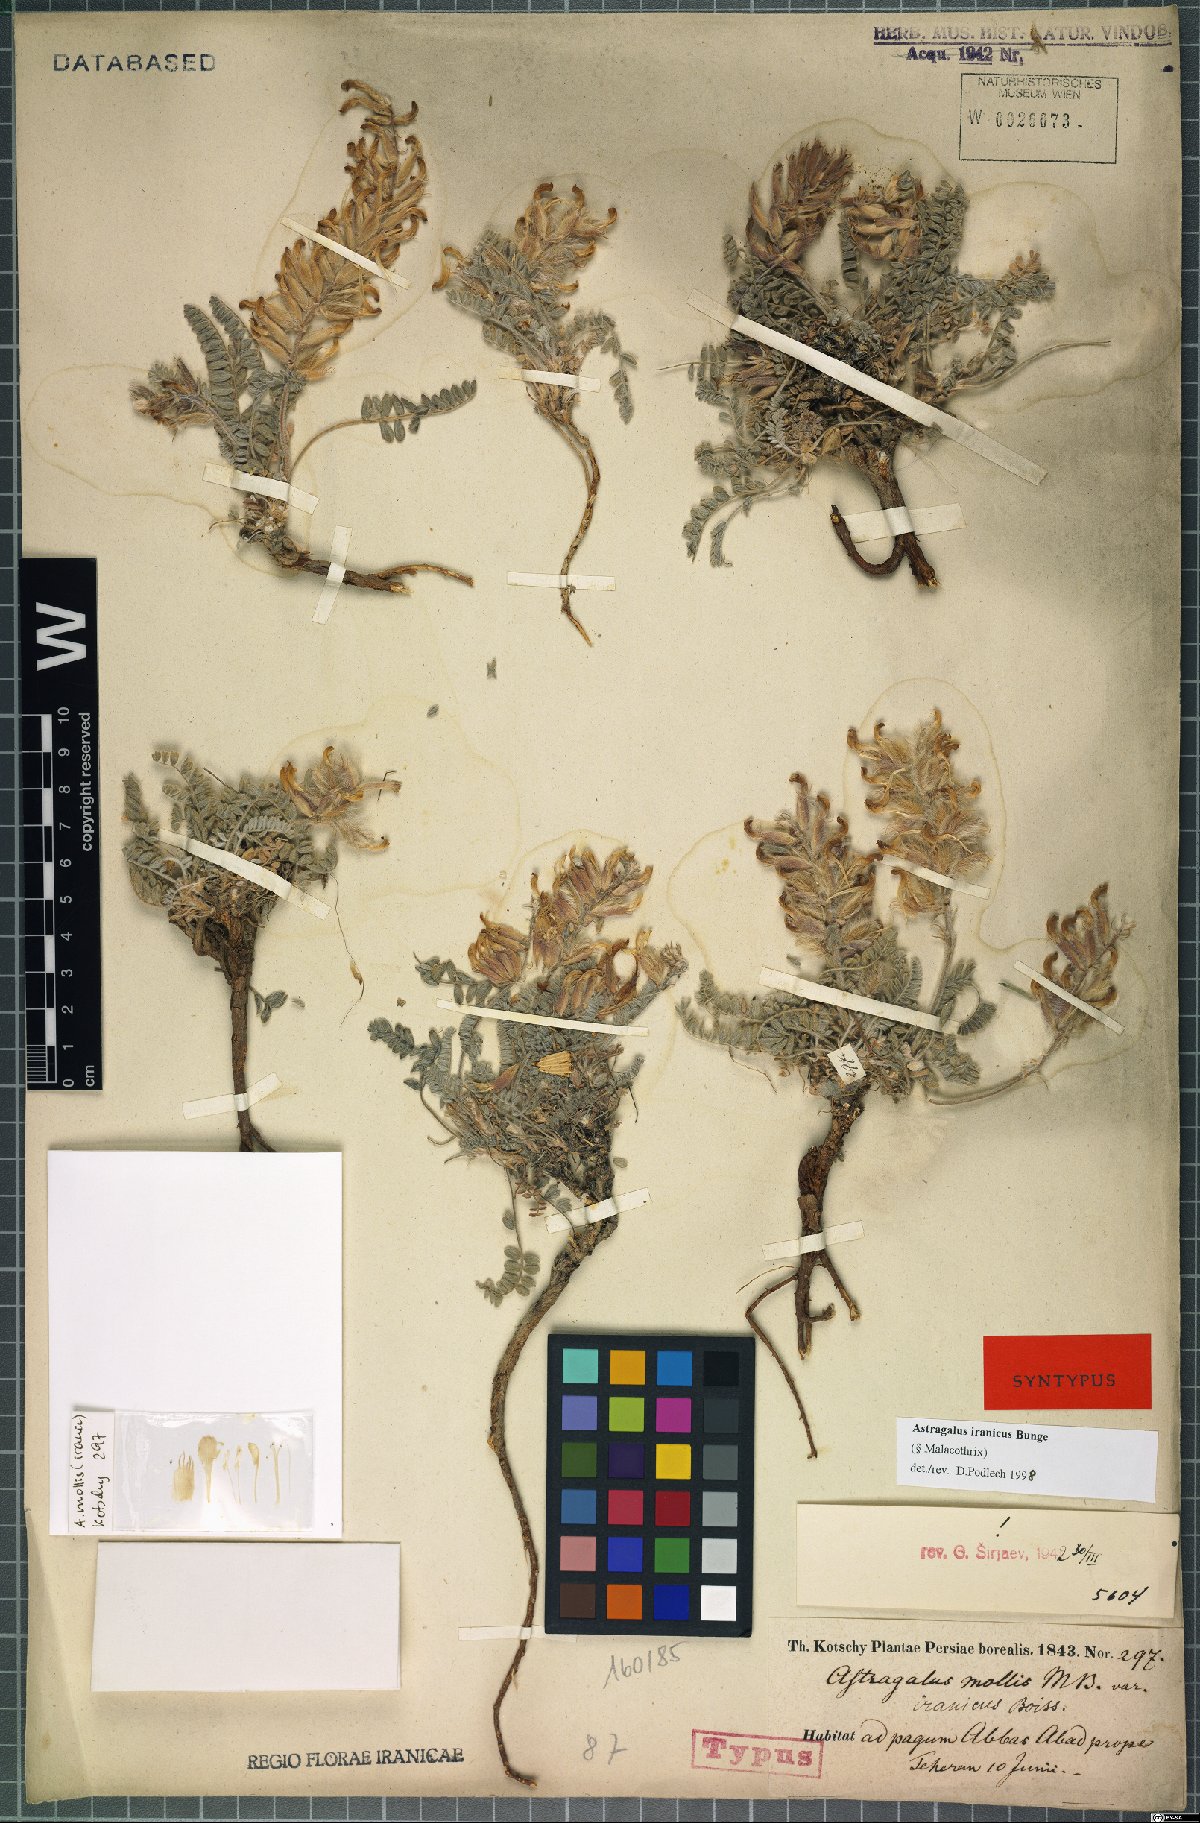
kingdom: Plantae
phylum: Tracheophyta
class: Magnoliopsida
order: Fabales
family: Fabaceae
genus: Astragalus
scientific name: Astragalus iranicus
